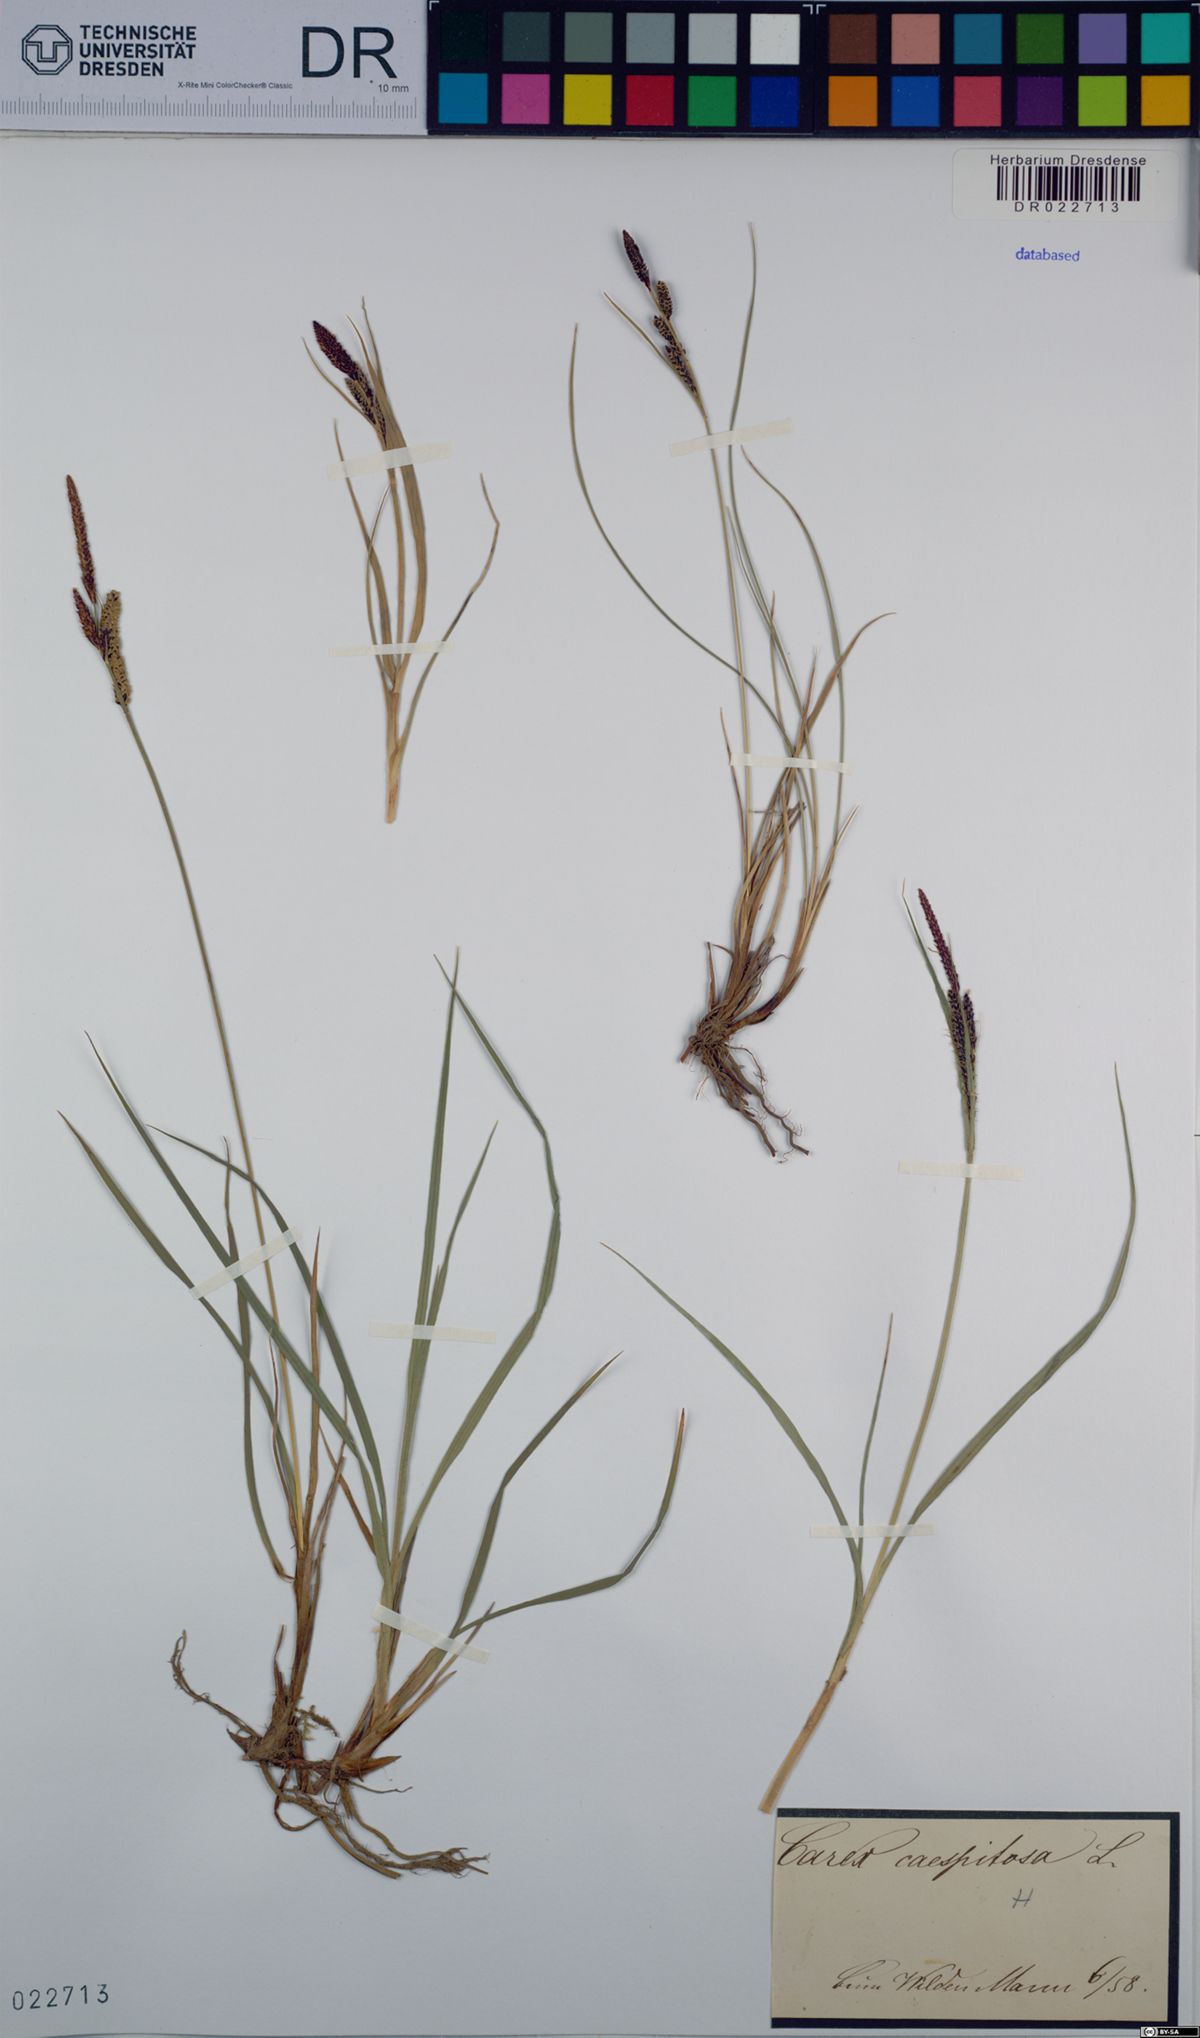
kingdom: Plantae
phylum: Tracheophyta
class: Liliopsida
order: Poales
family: Cyperaceae
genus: Carex
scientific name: Carex cespitosa
